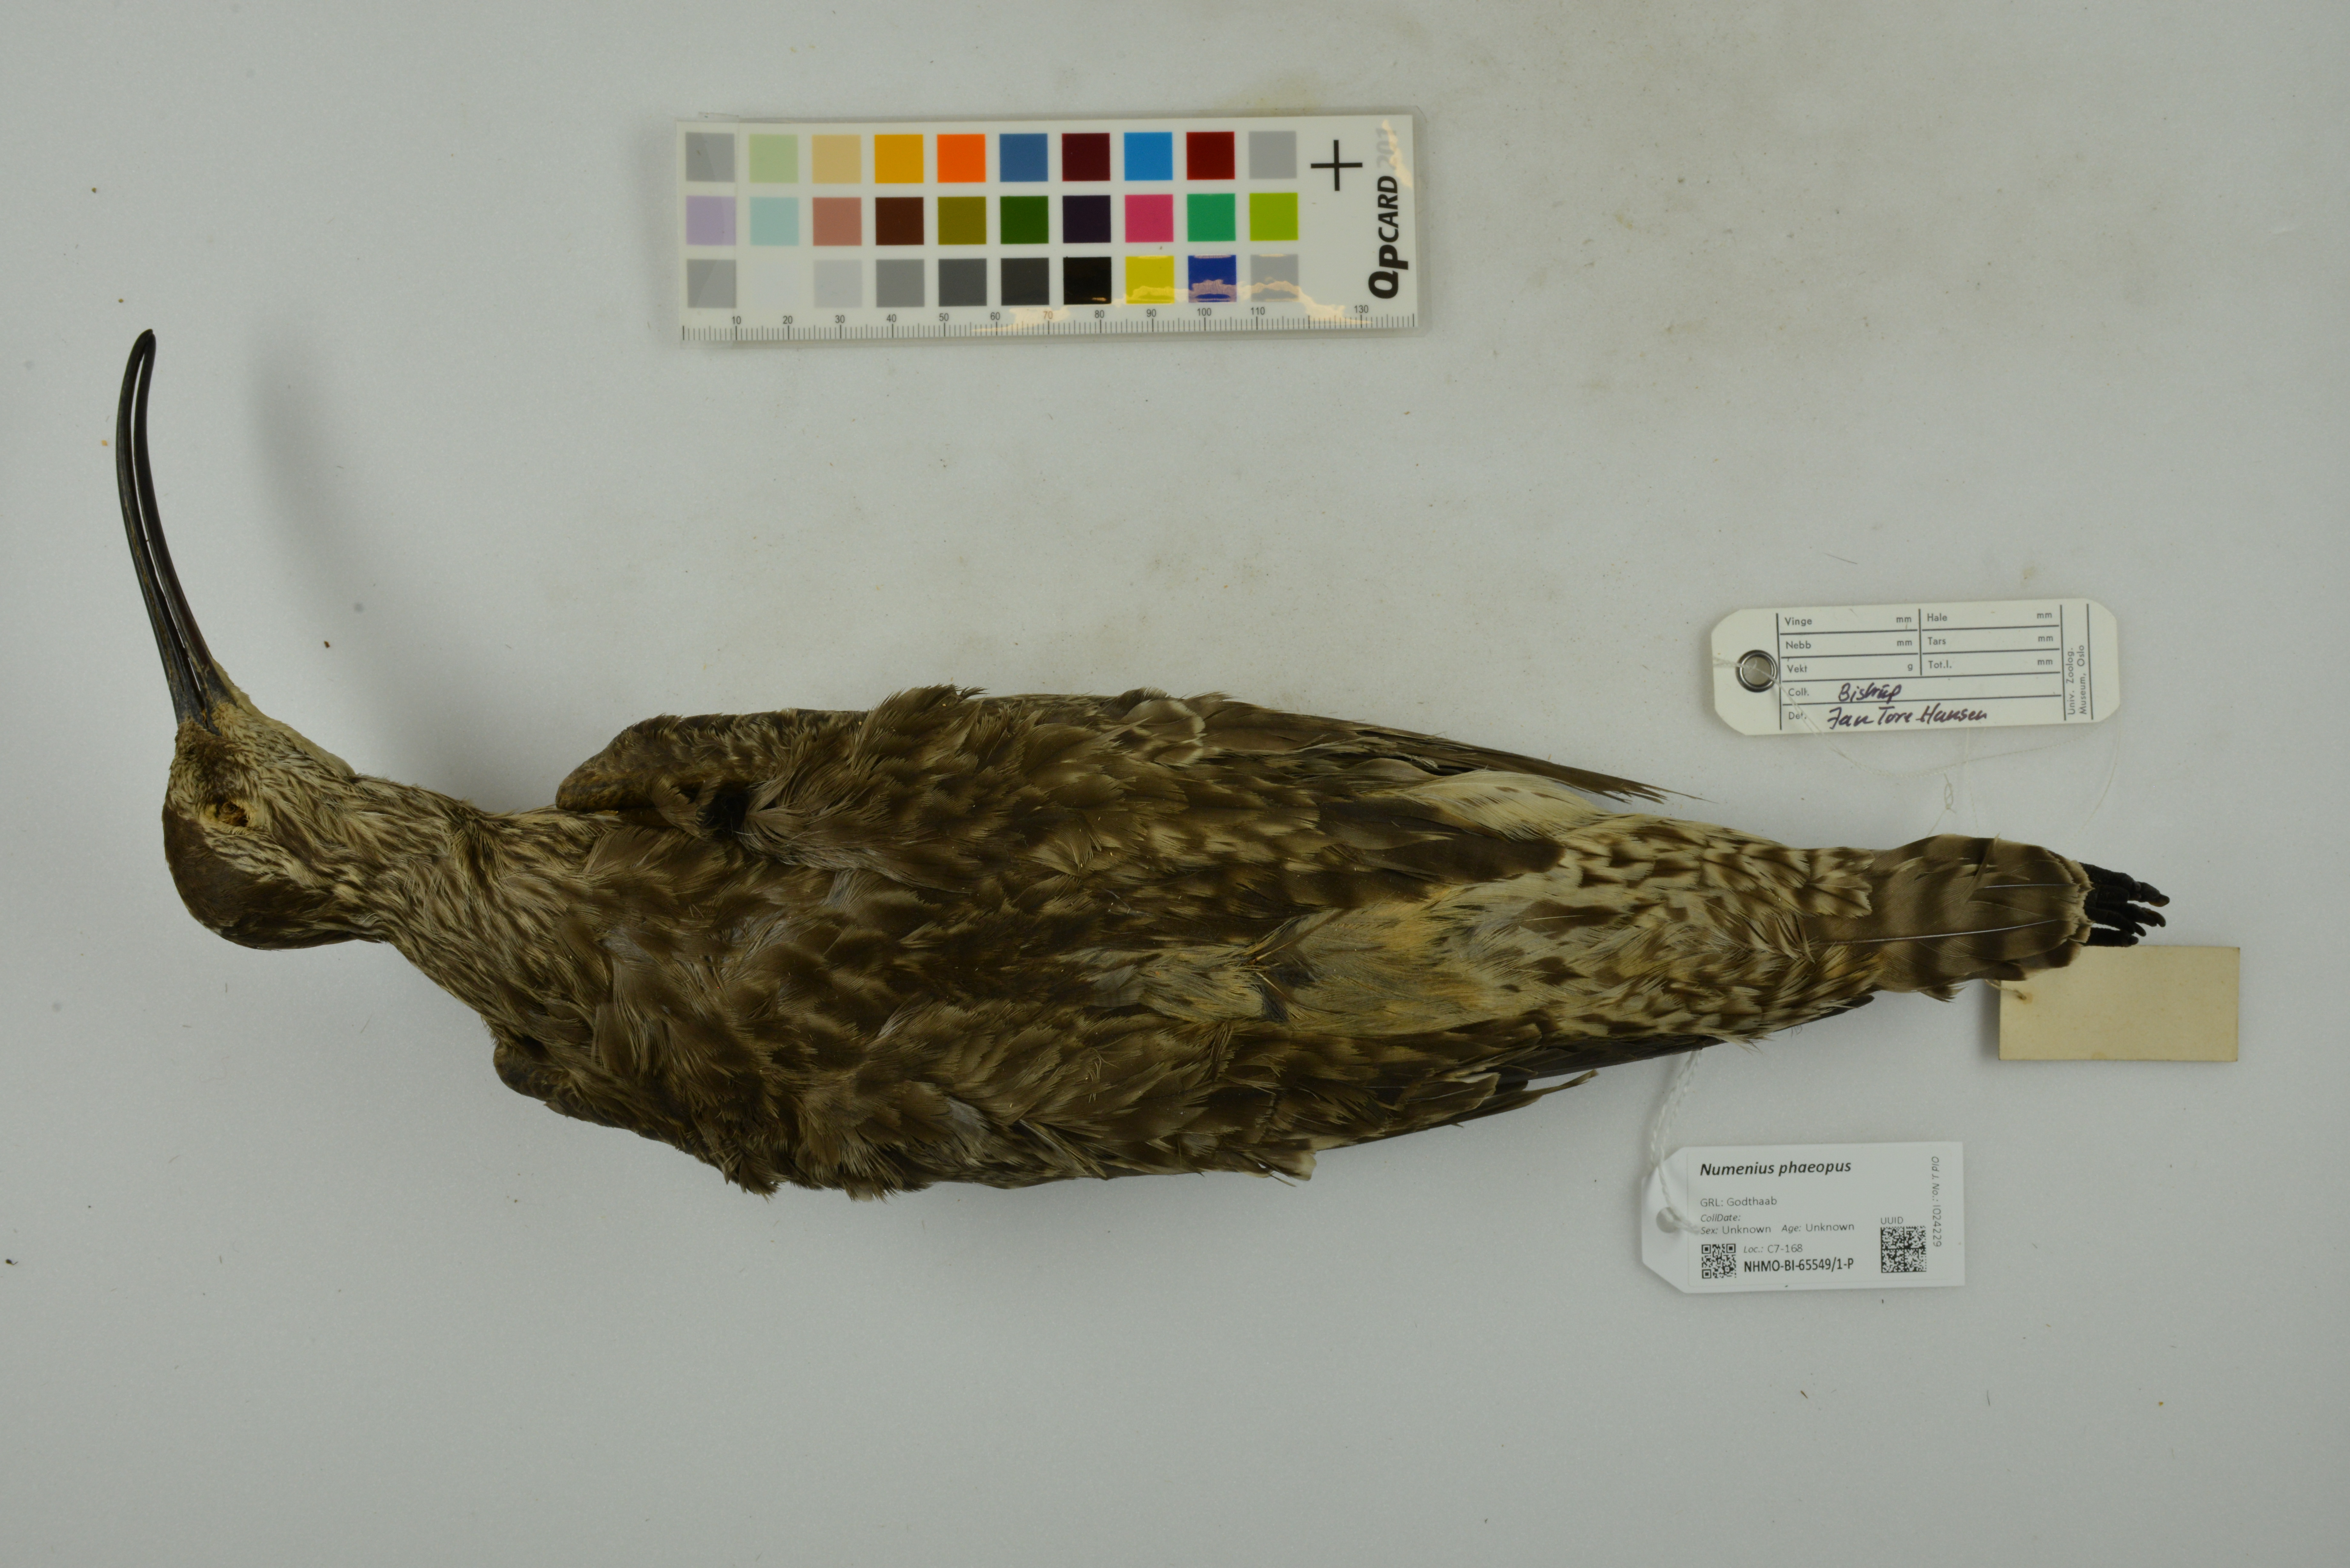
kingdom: Animalia
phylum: Chordata
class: Aves
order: Charadriiformes
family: Scolopacidae
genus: Numenius
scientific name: Numenius phaeopus
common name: Whimbrel
